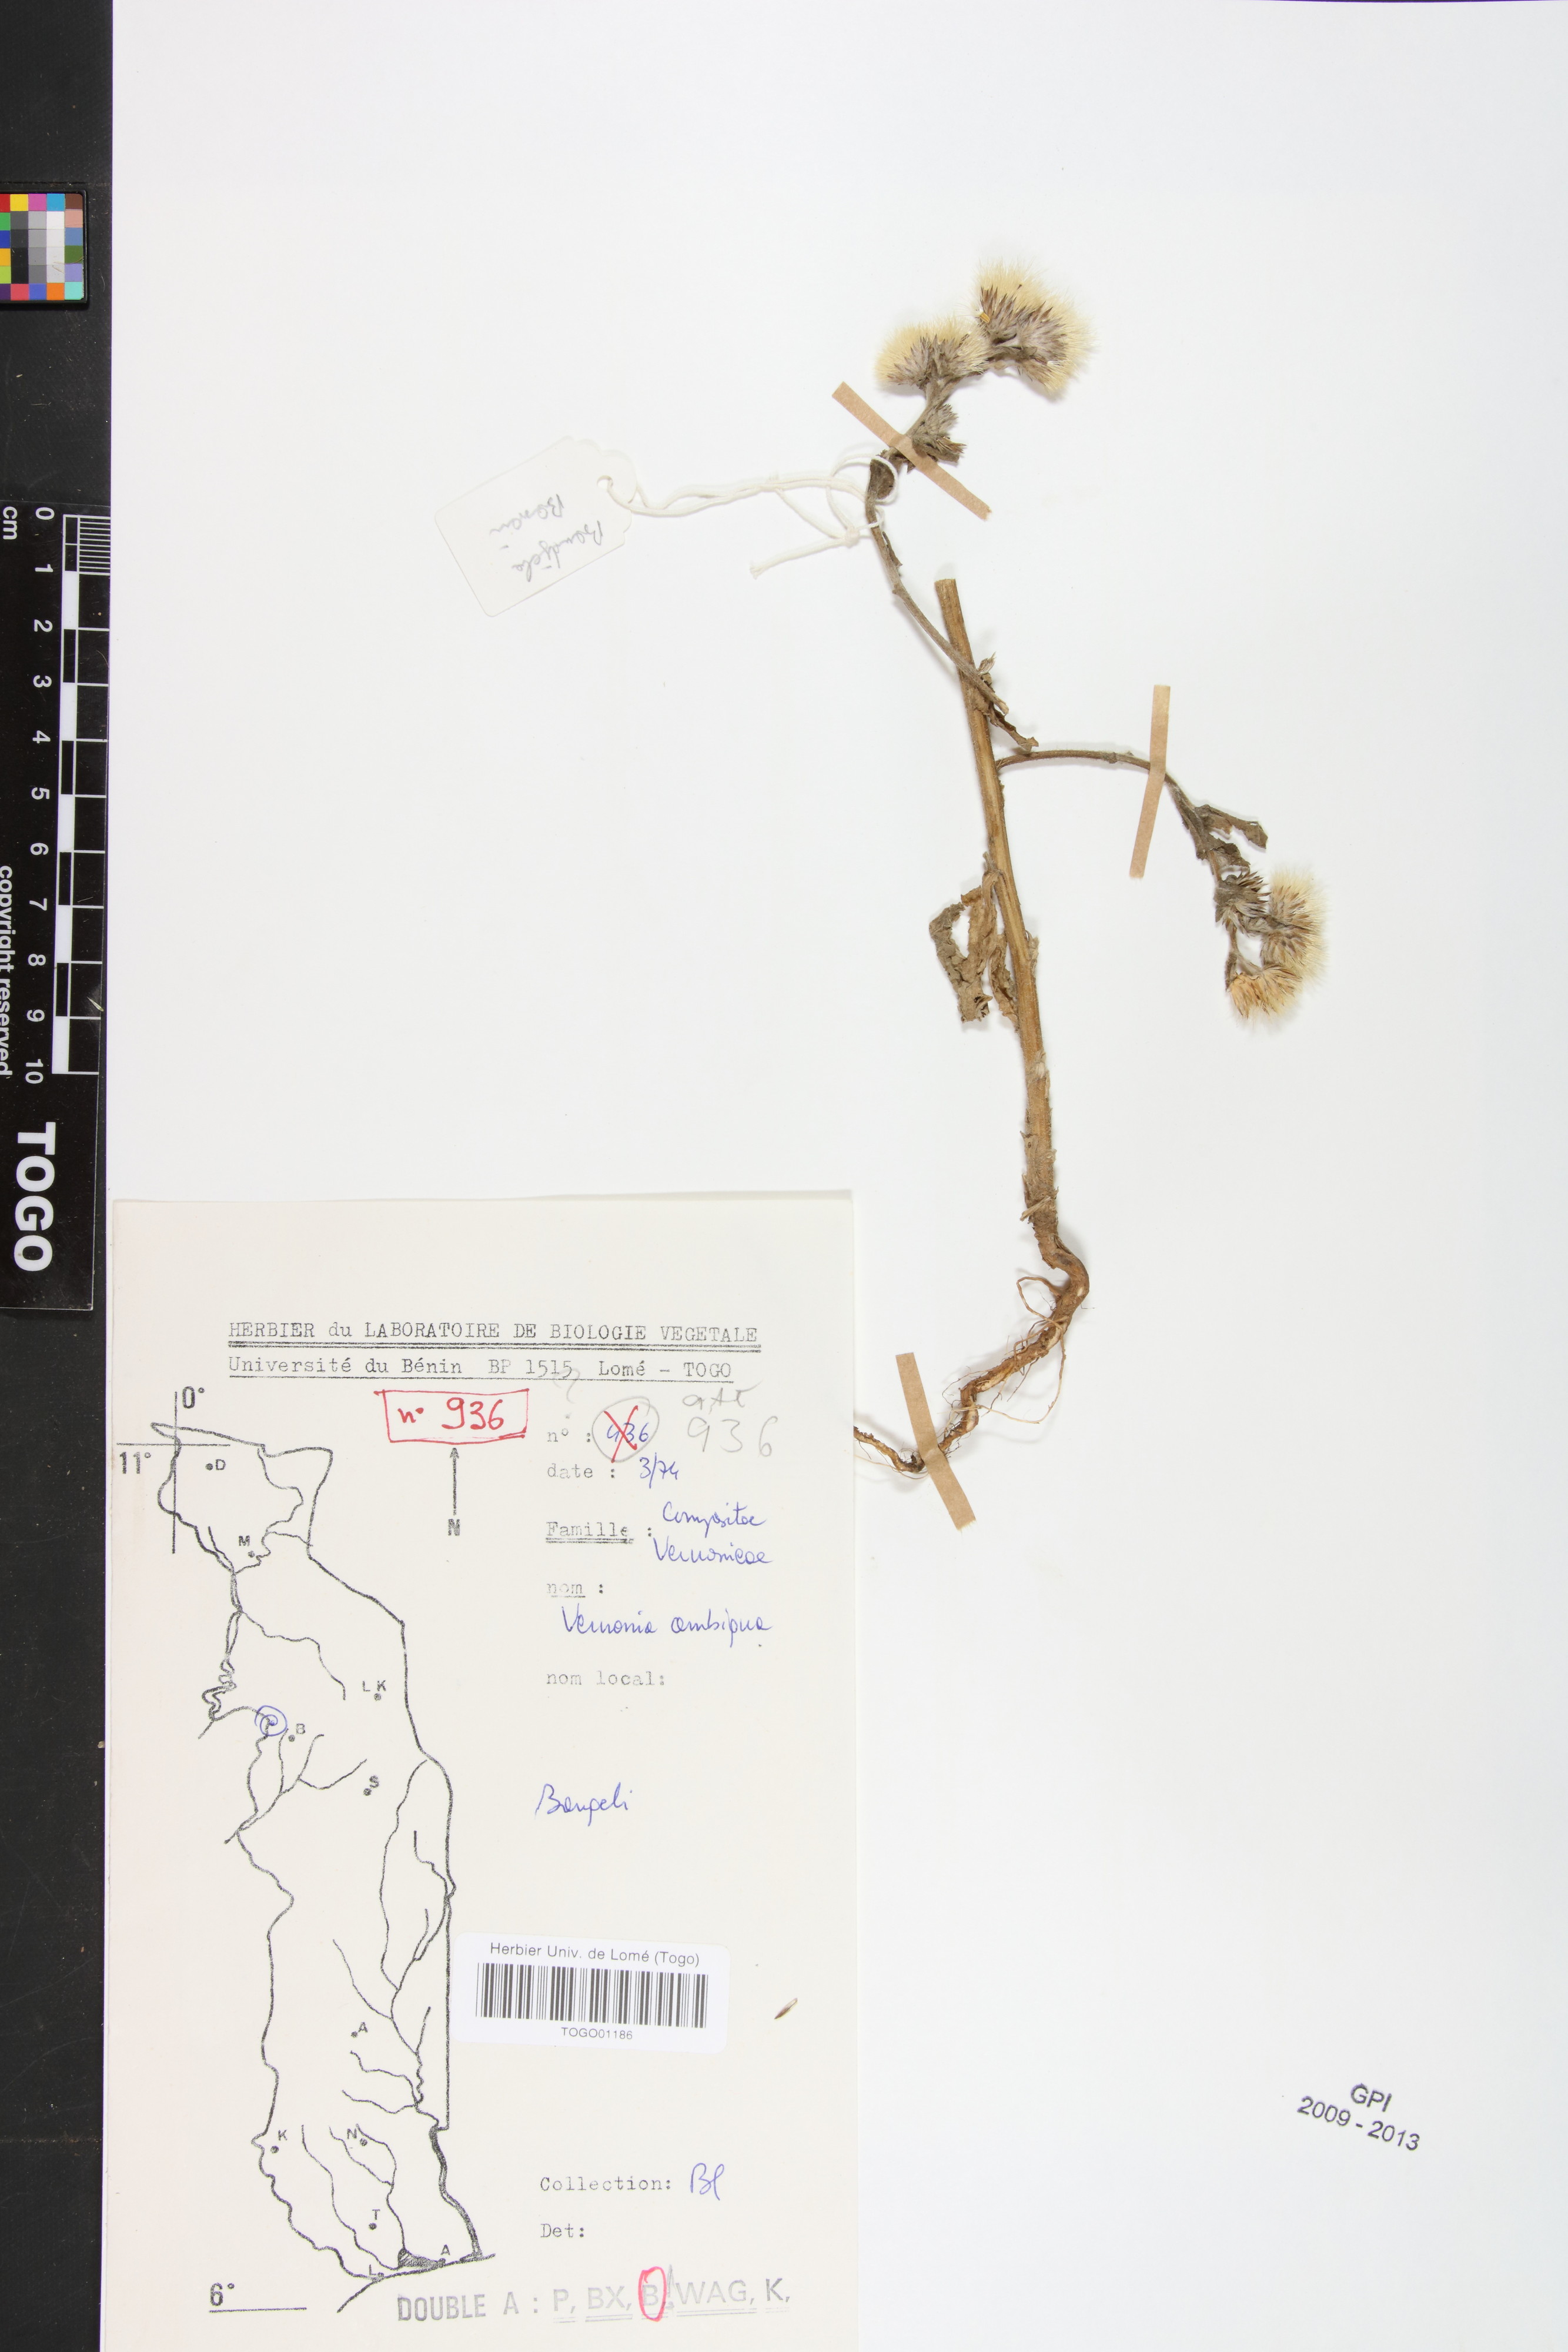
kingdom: Plantae
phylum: Tracheophyta
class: Magnoliopsida
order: Asterales
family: Asteraceae
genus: Vernoniastrum
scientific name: Vernoniastrum ambiguum
